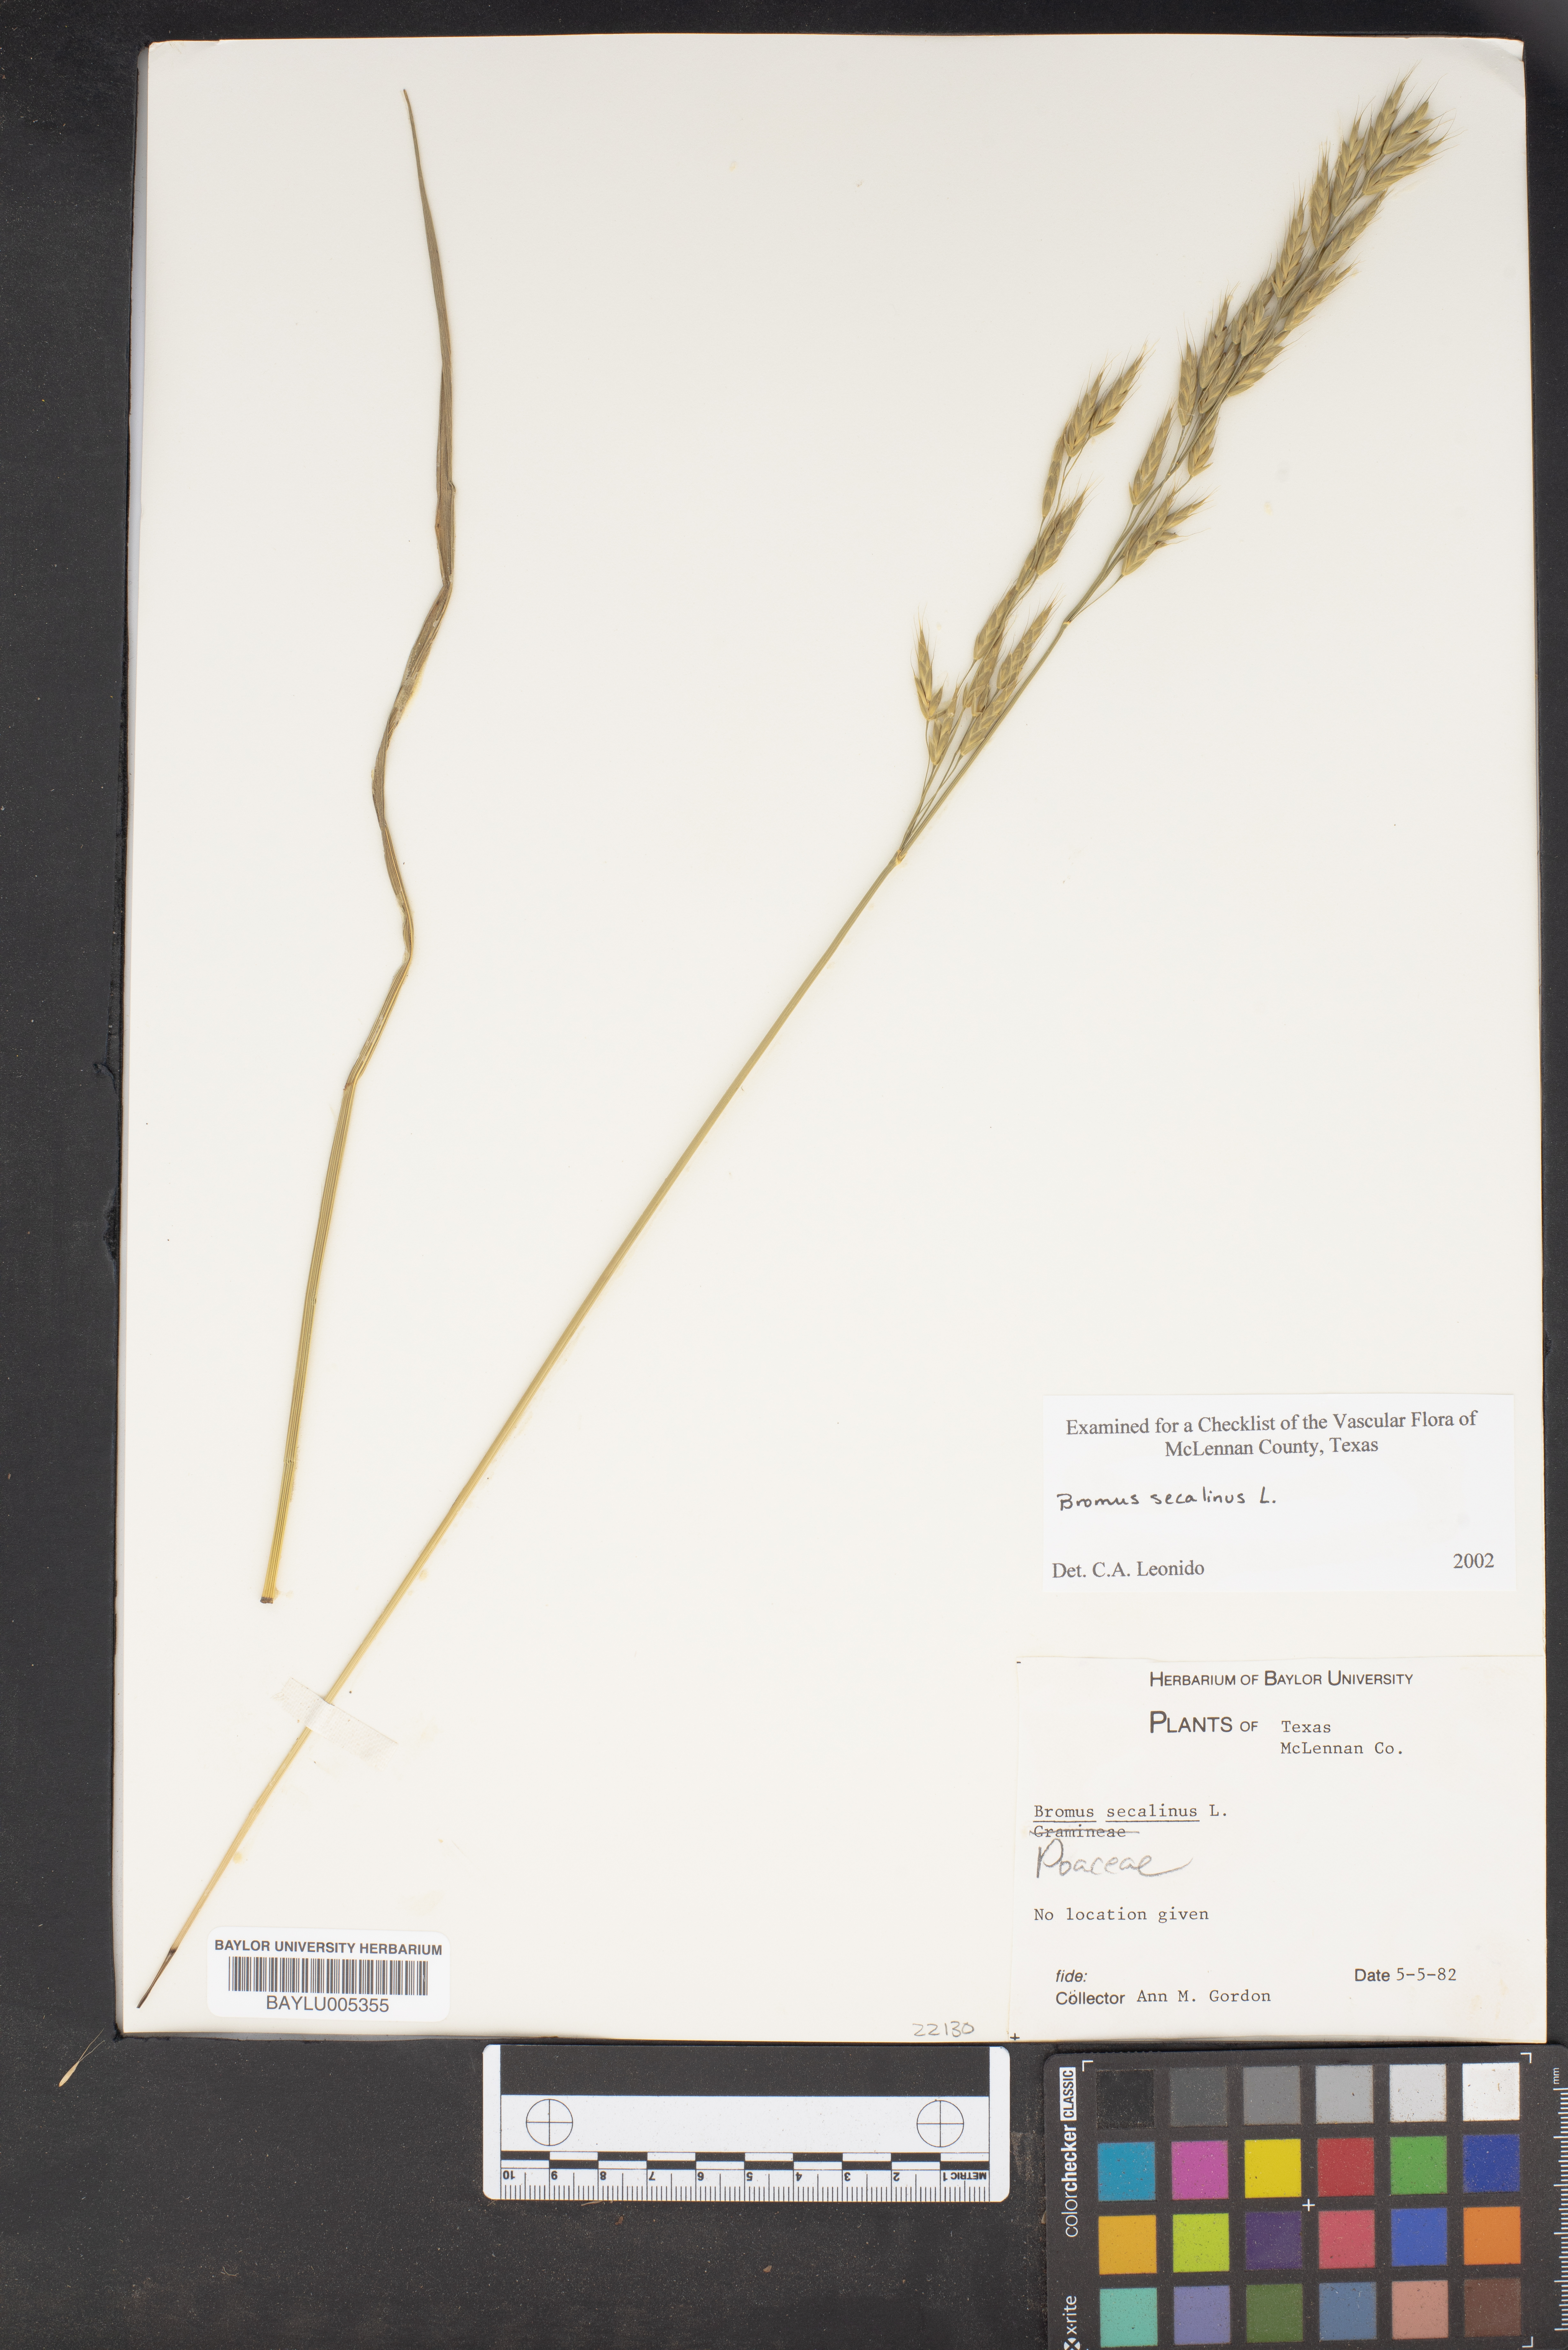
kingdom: Plantae
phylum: Tracheophyta
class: Liliopsida
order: Poales
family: Poaceae
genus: Bromus
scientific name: Bromus secalinus
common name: Rye brome
